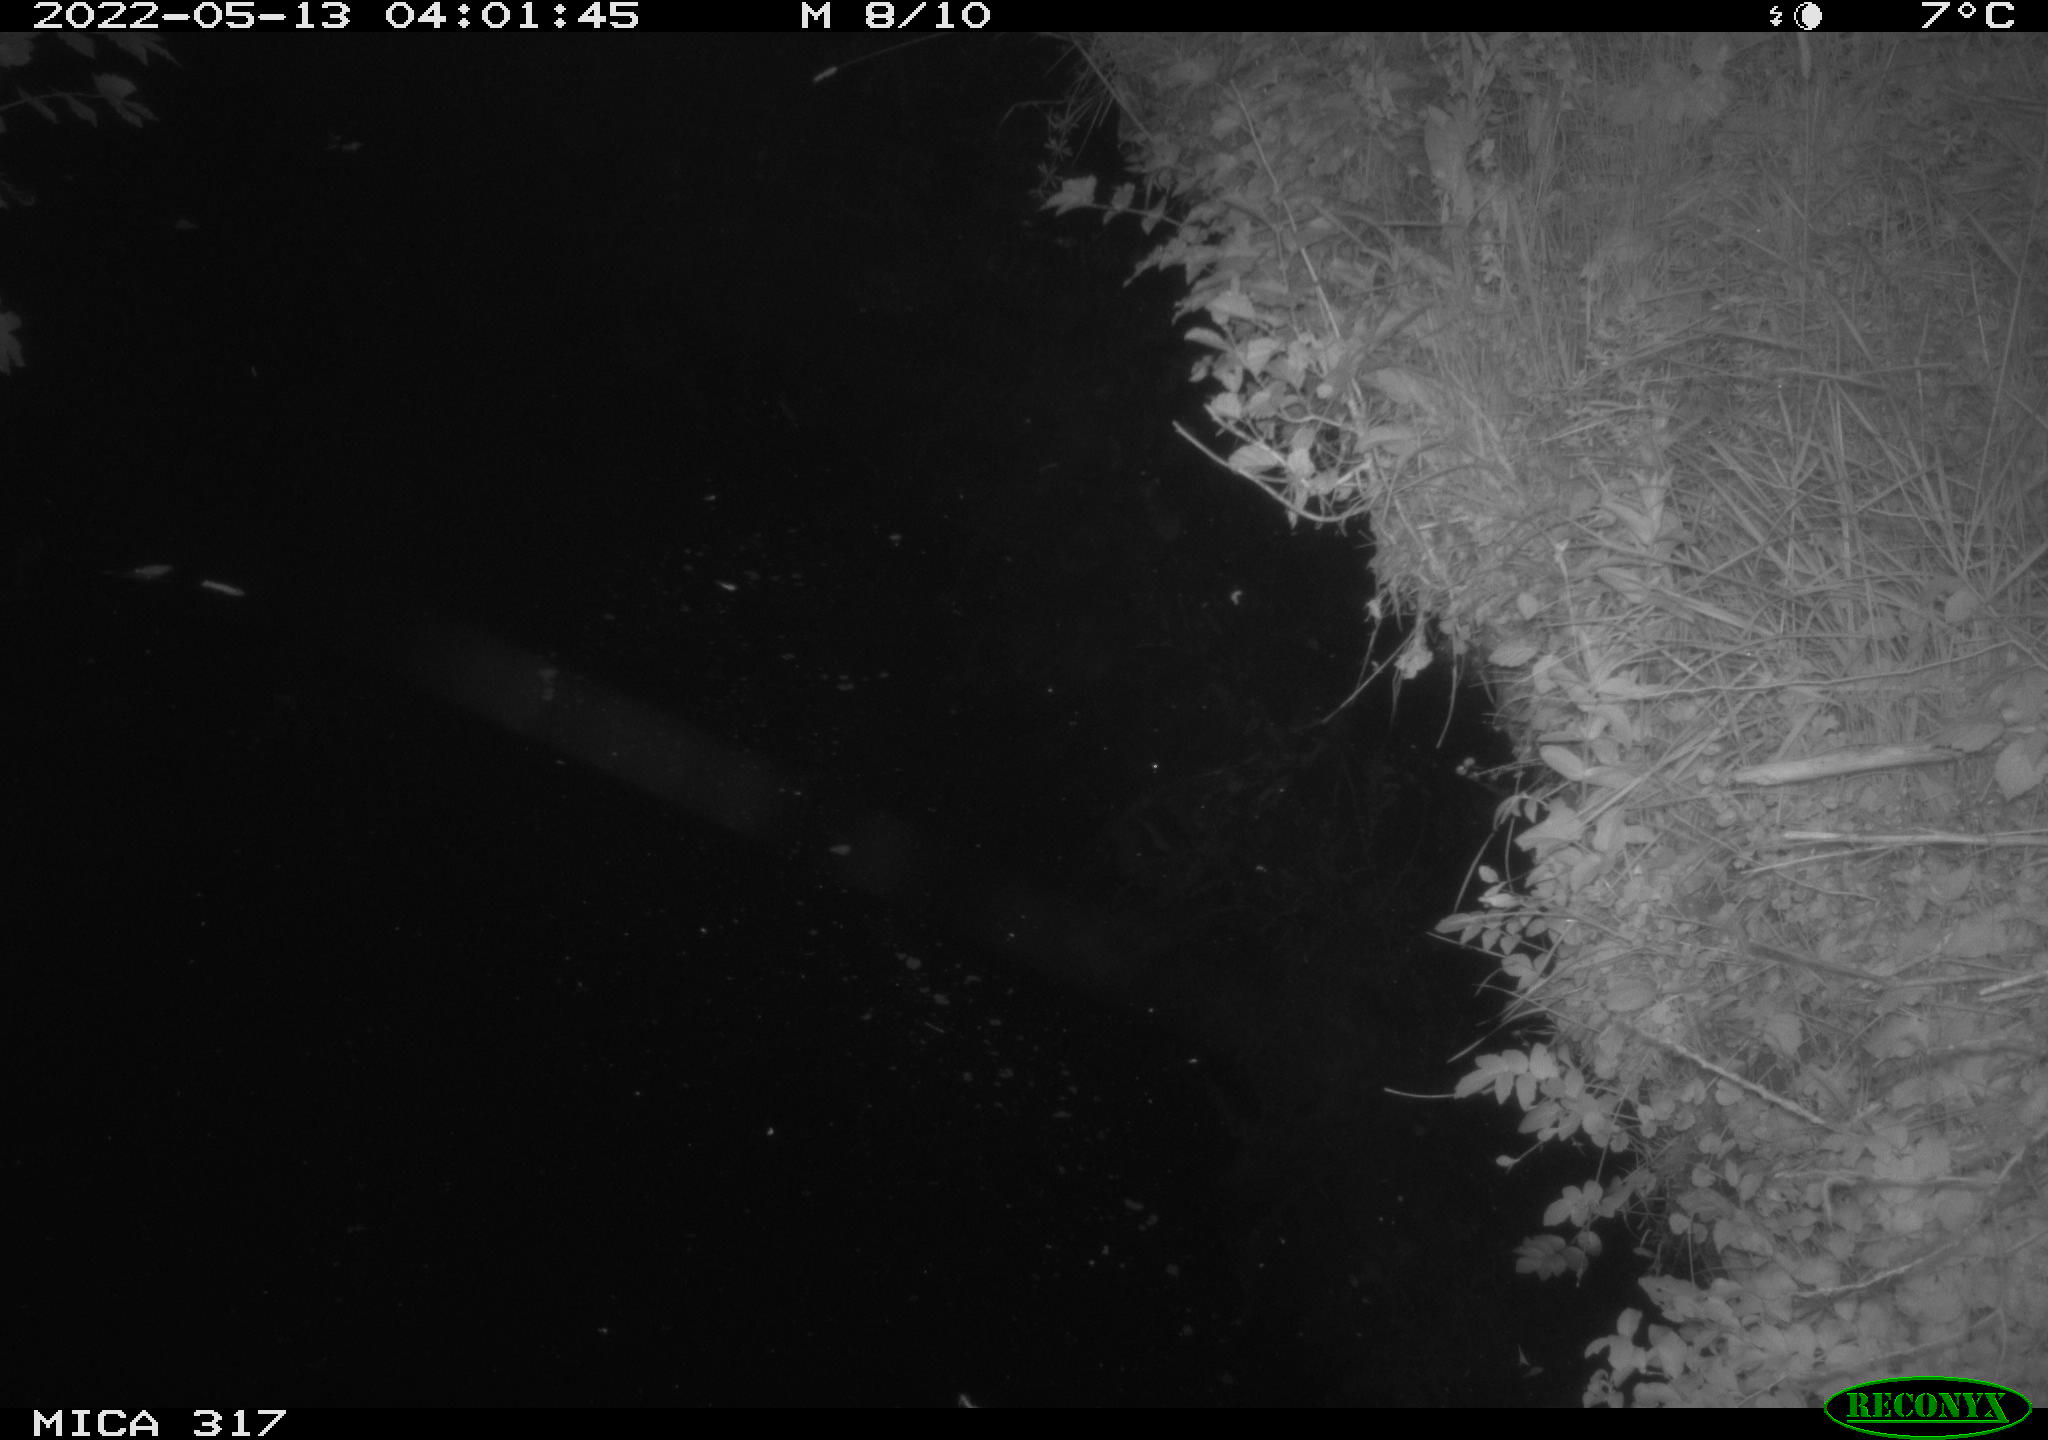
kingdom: Animalia
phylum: Chordata
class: Aves
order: Anseriformes
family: Anatidae
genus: Anas
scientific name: Anas
